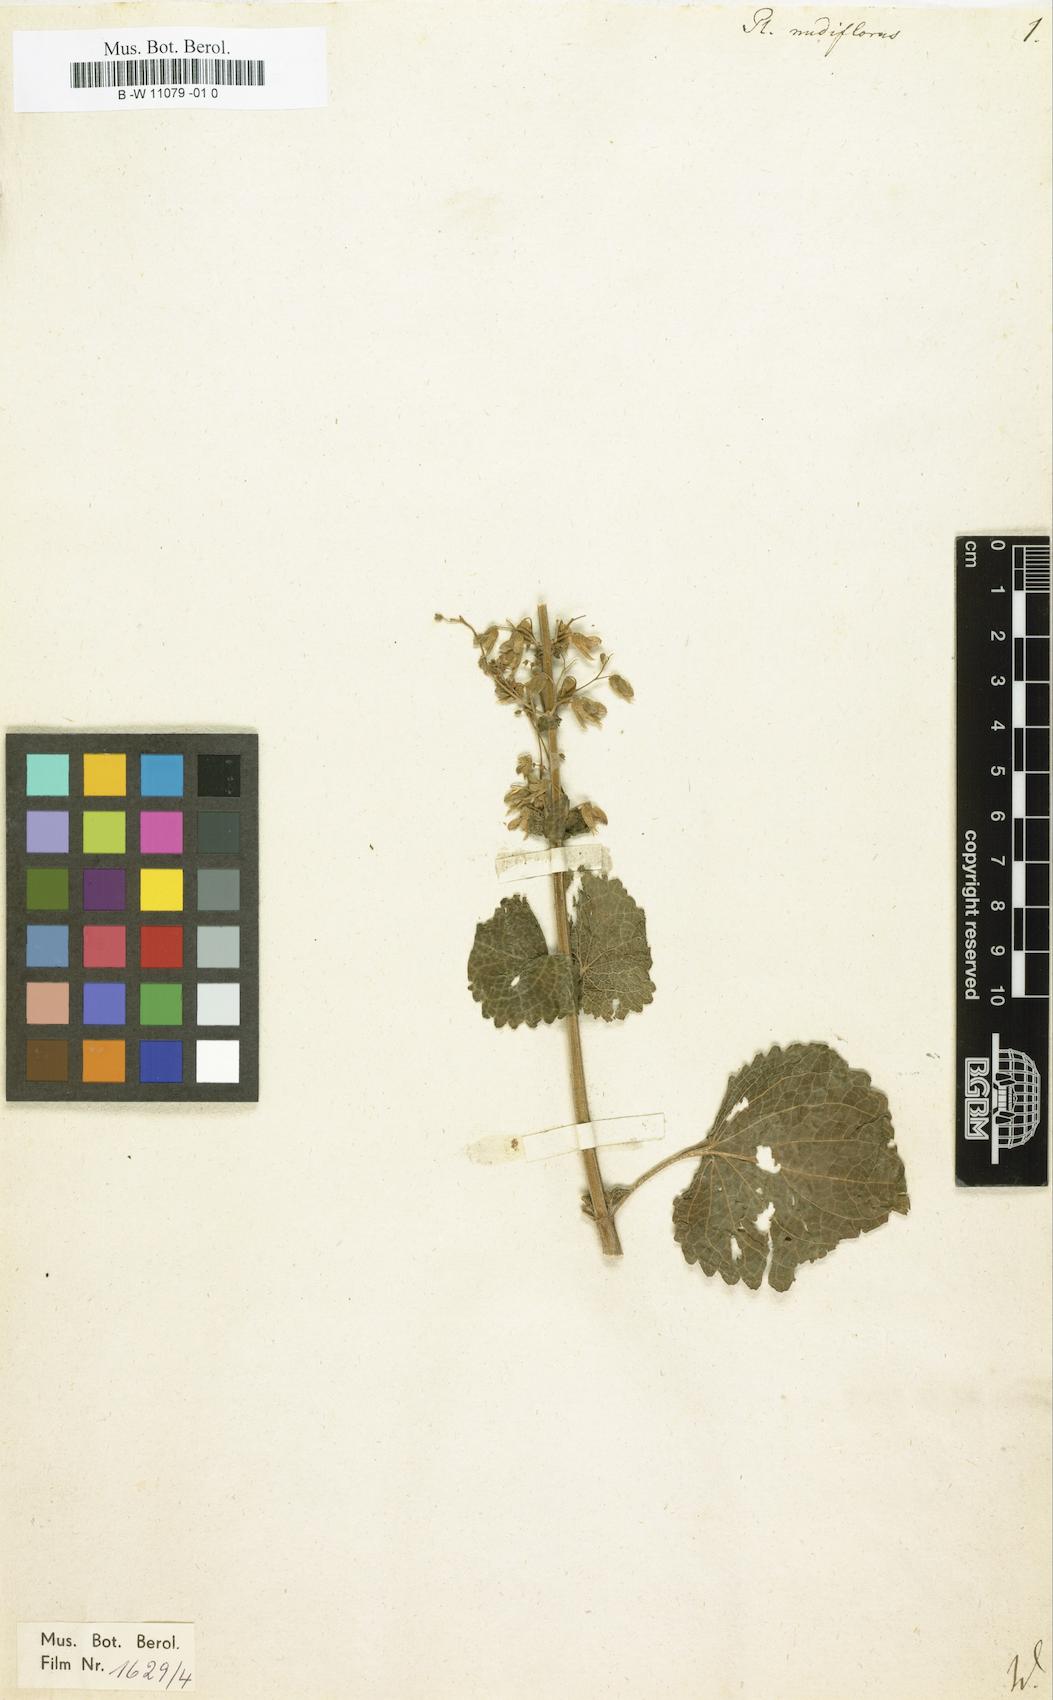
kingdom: Plantae
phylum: Tracheophyta
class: Magnoliopsida
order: Lamiales
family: Lamiaceae
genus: Coleus
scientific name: Coleus scutellarioides
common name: Coleus
